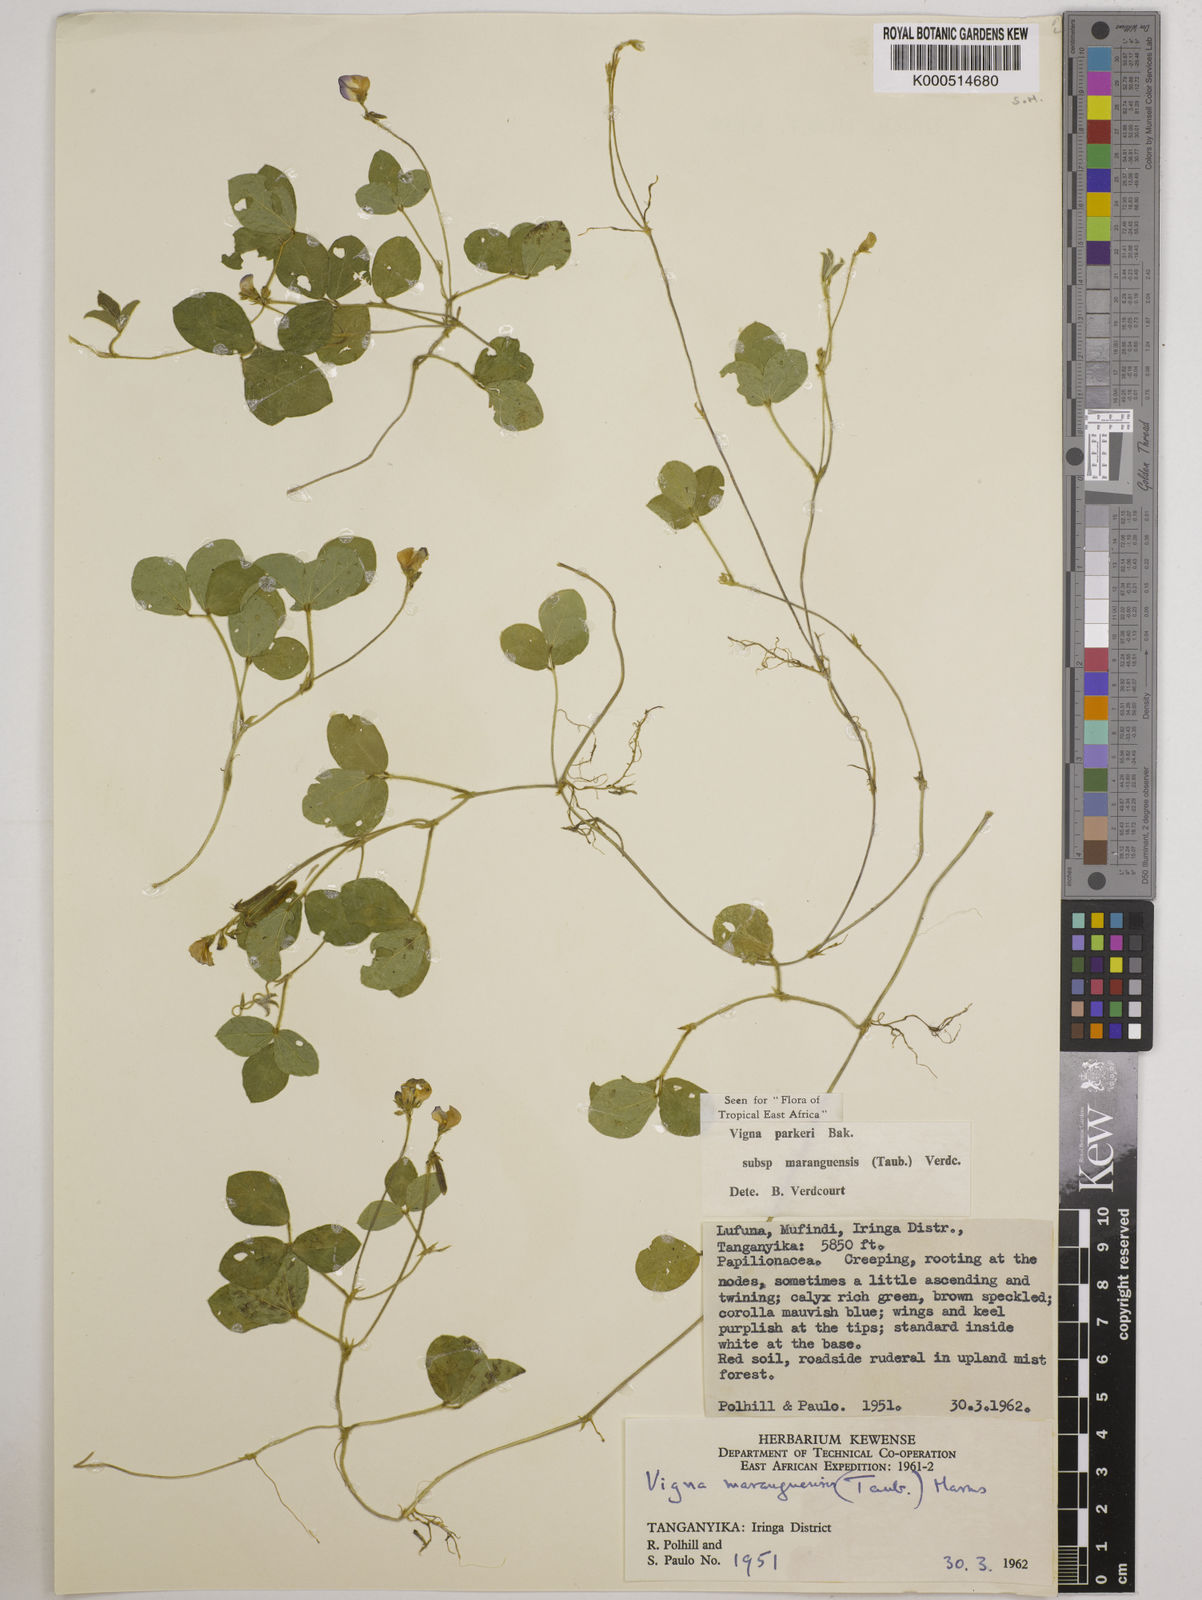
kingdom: Plantae
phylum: Tracheophyta
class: Magnoliopsida
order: Fabales
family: Fabaceae
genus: Vigna
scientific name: Vigna
